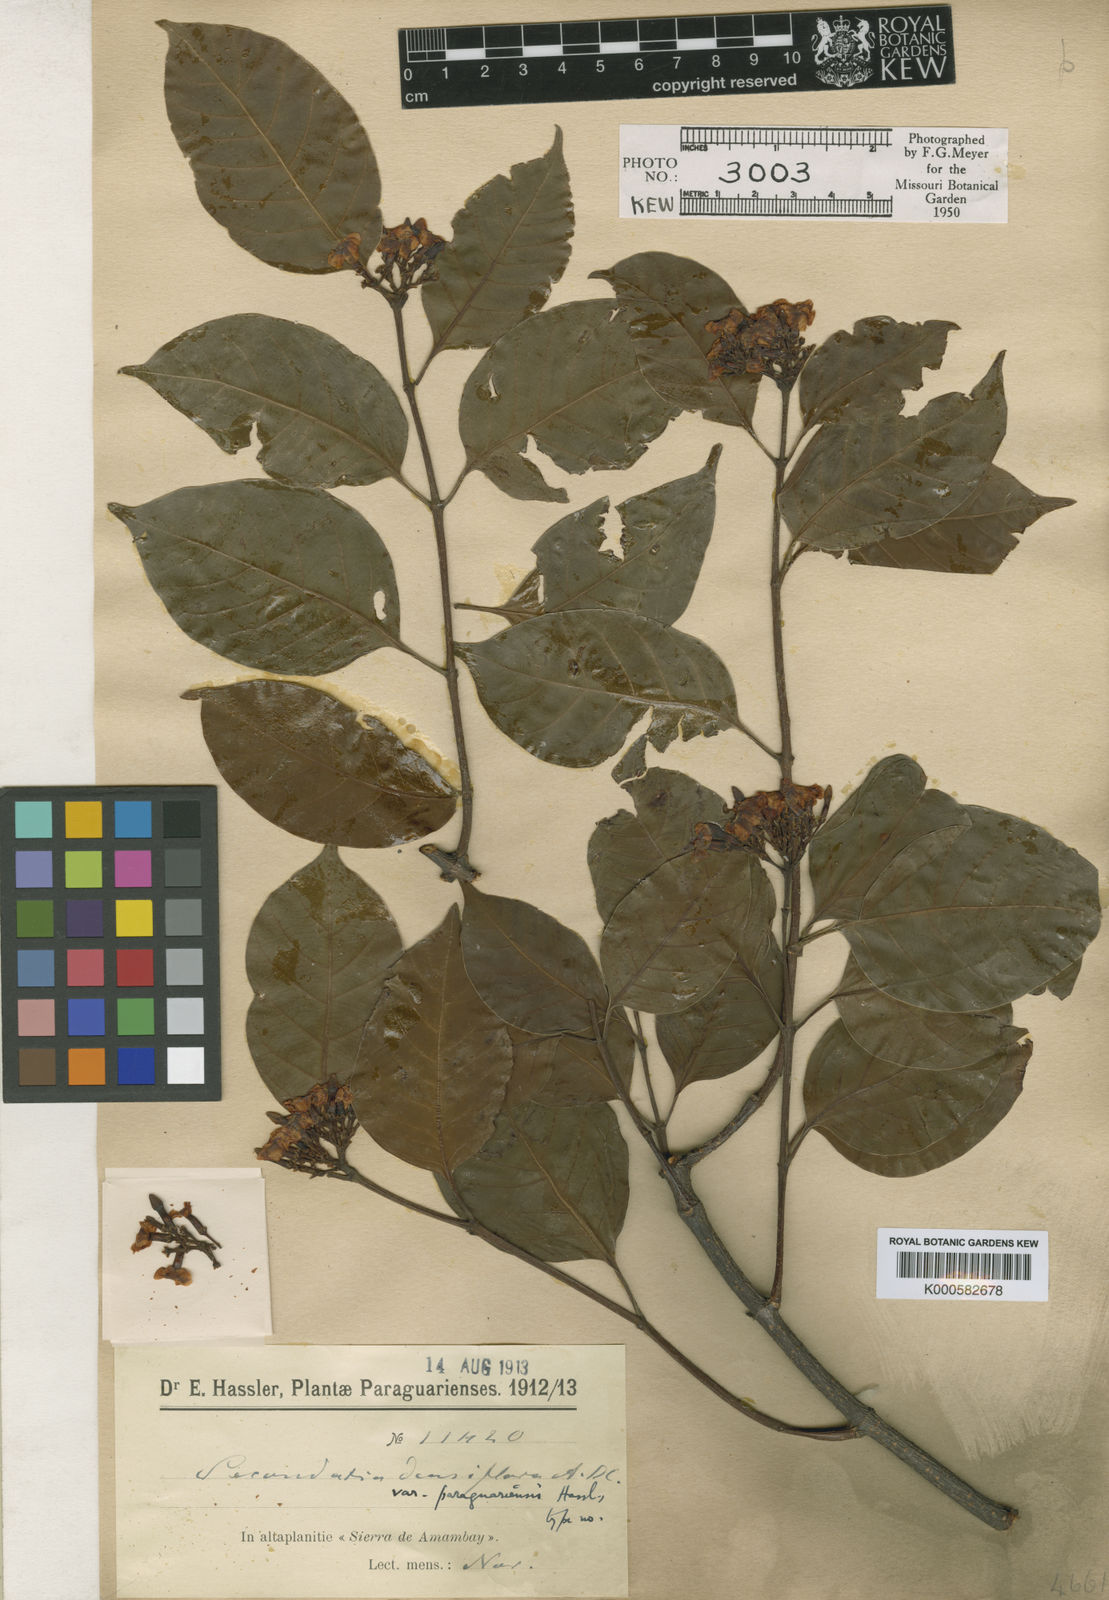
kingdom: Plantae
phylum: Tracheophyta
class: Magnoliopsida
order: Gentianales
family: Apocynaceae
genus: Secondatia
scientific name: Secondatia densiflora
